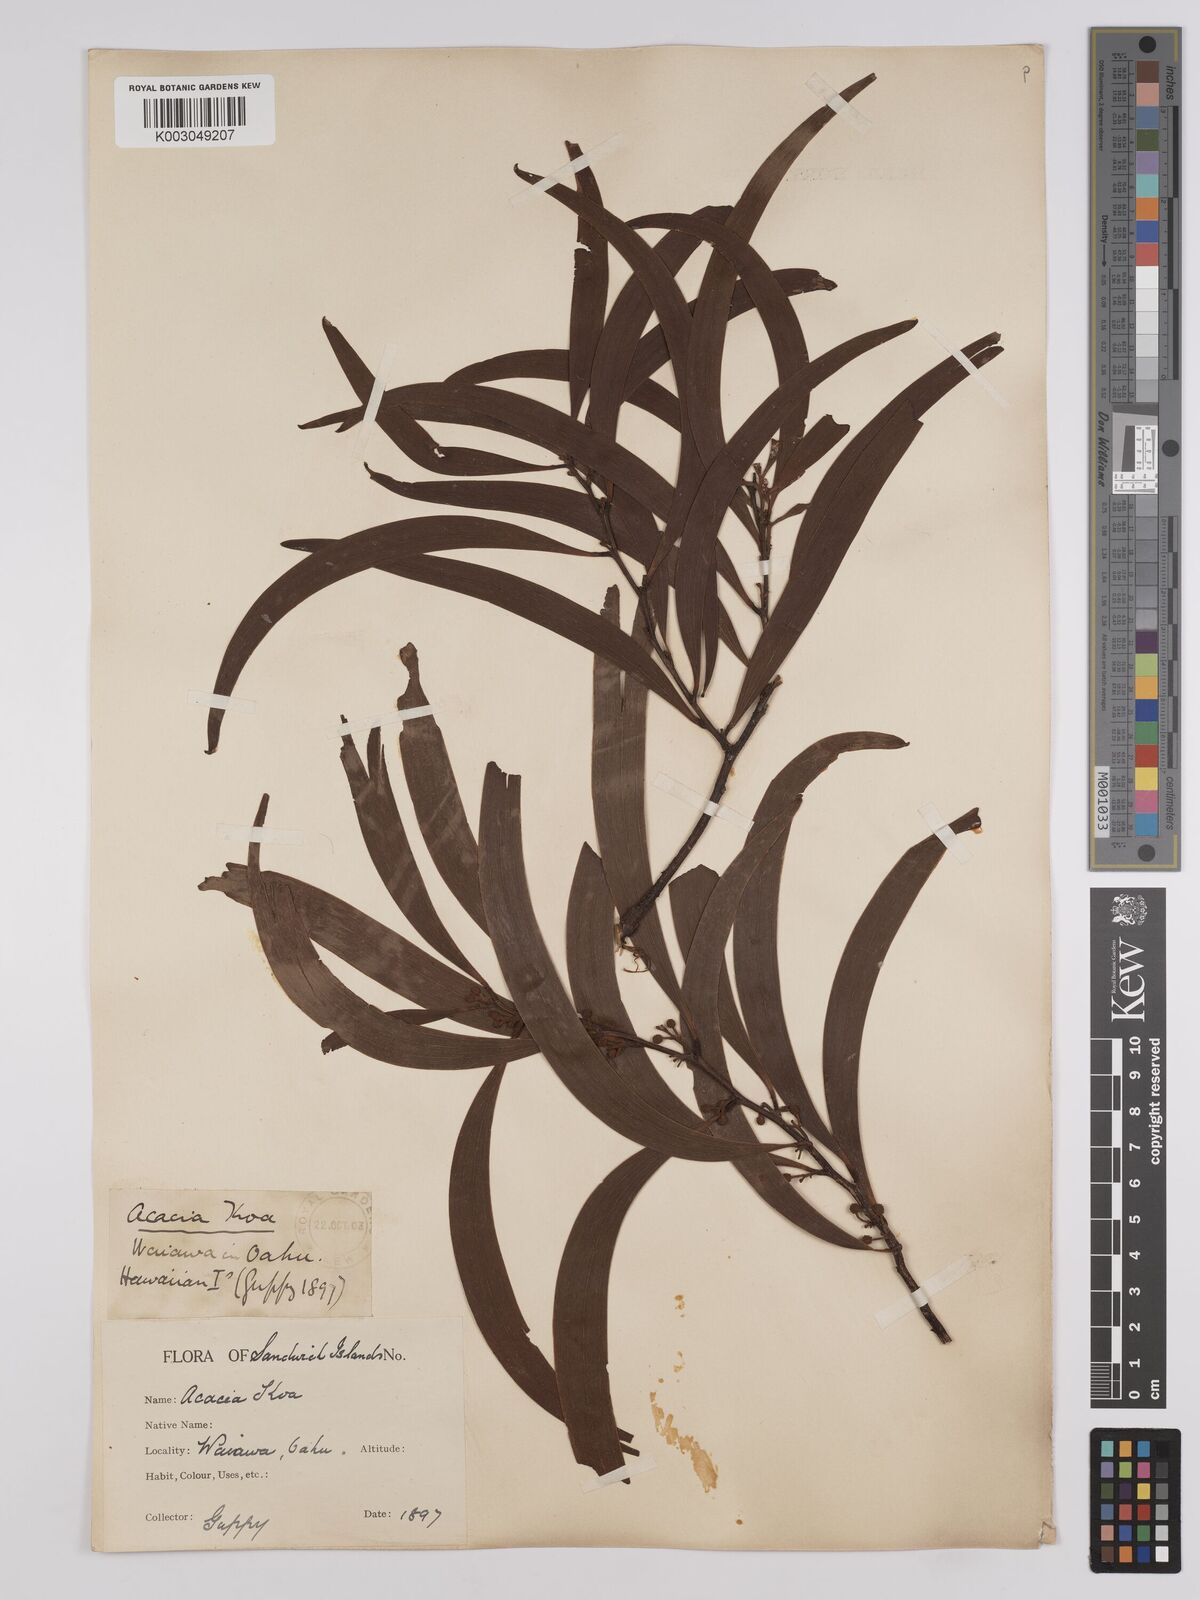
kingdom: Plantae
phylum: Tracheophyta
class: Magnoliopsida
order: Fabales
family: Fabaceae
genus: Acacia
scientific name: Acacia koa
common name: Gray koa
